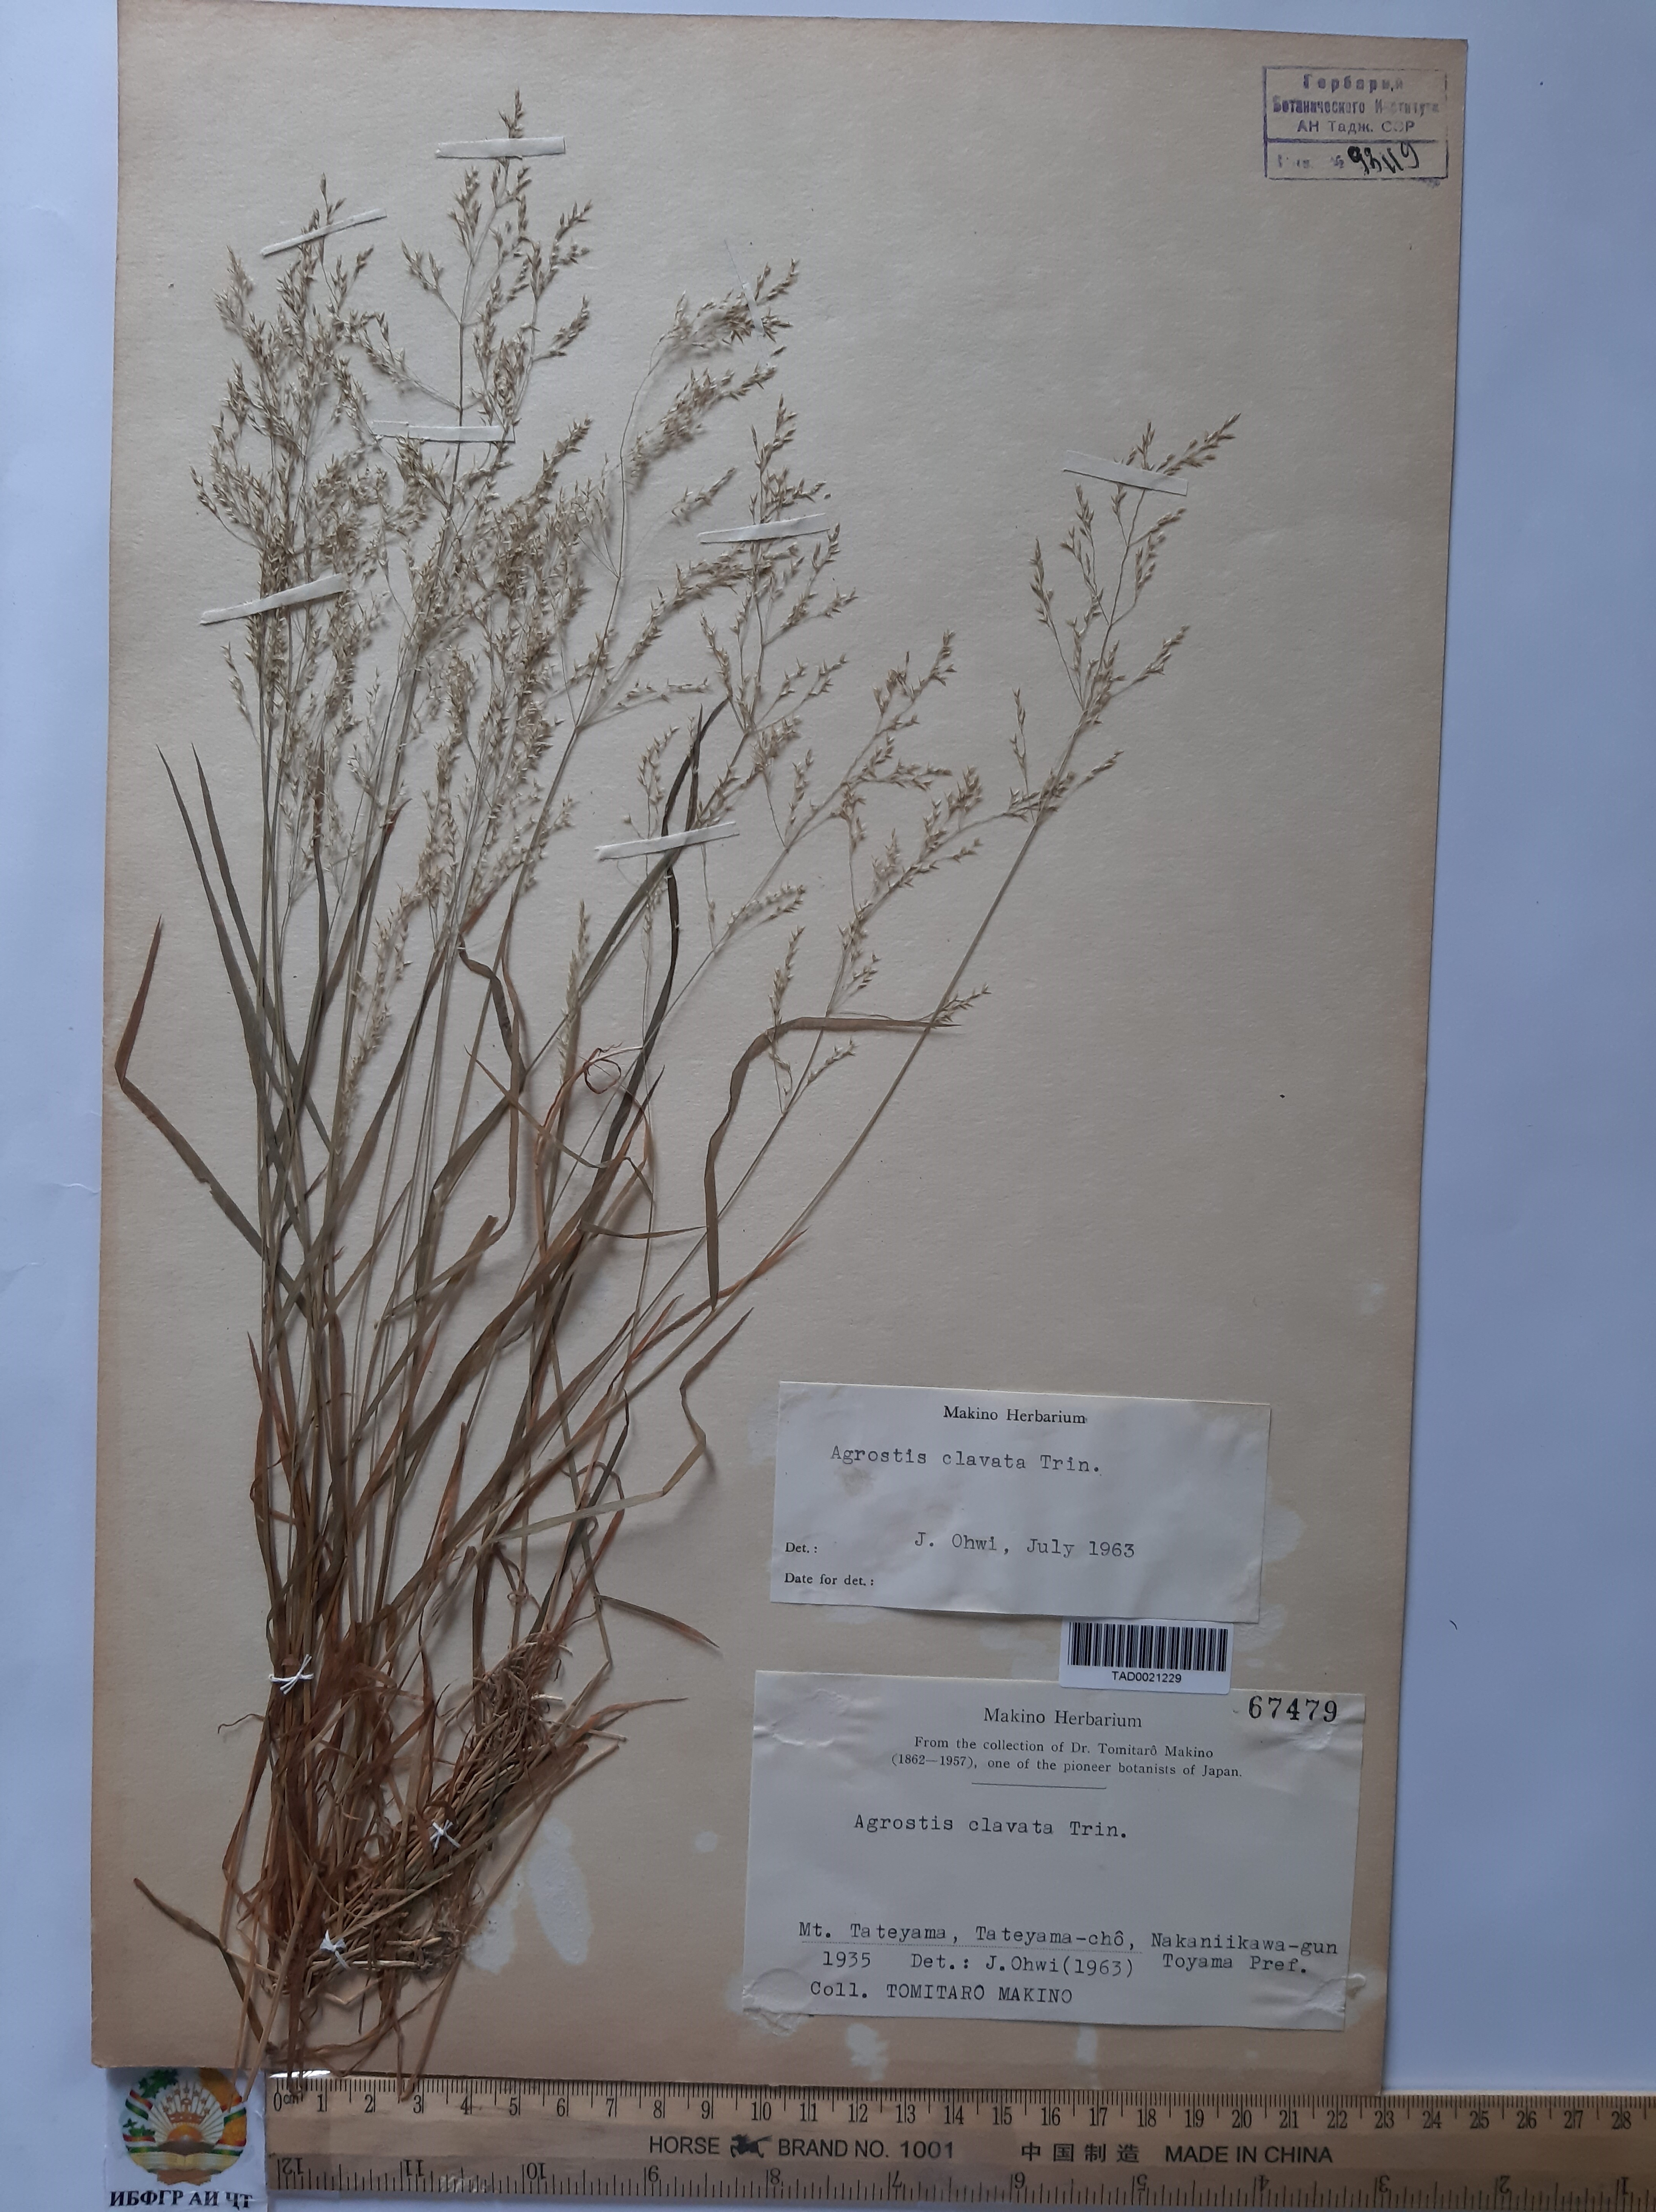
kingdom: Plantae
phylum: Tracheophyta
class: Liliopsida
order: Poales
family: Poaceae
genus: Agrostis
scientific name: Agrostis clavata
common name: Clavate bent
